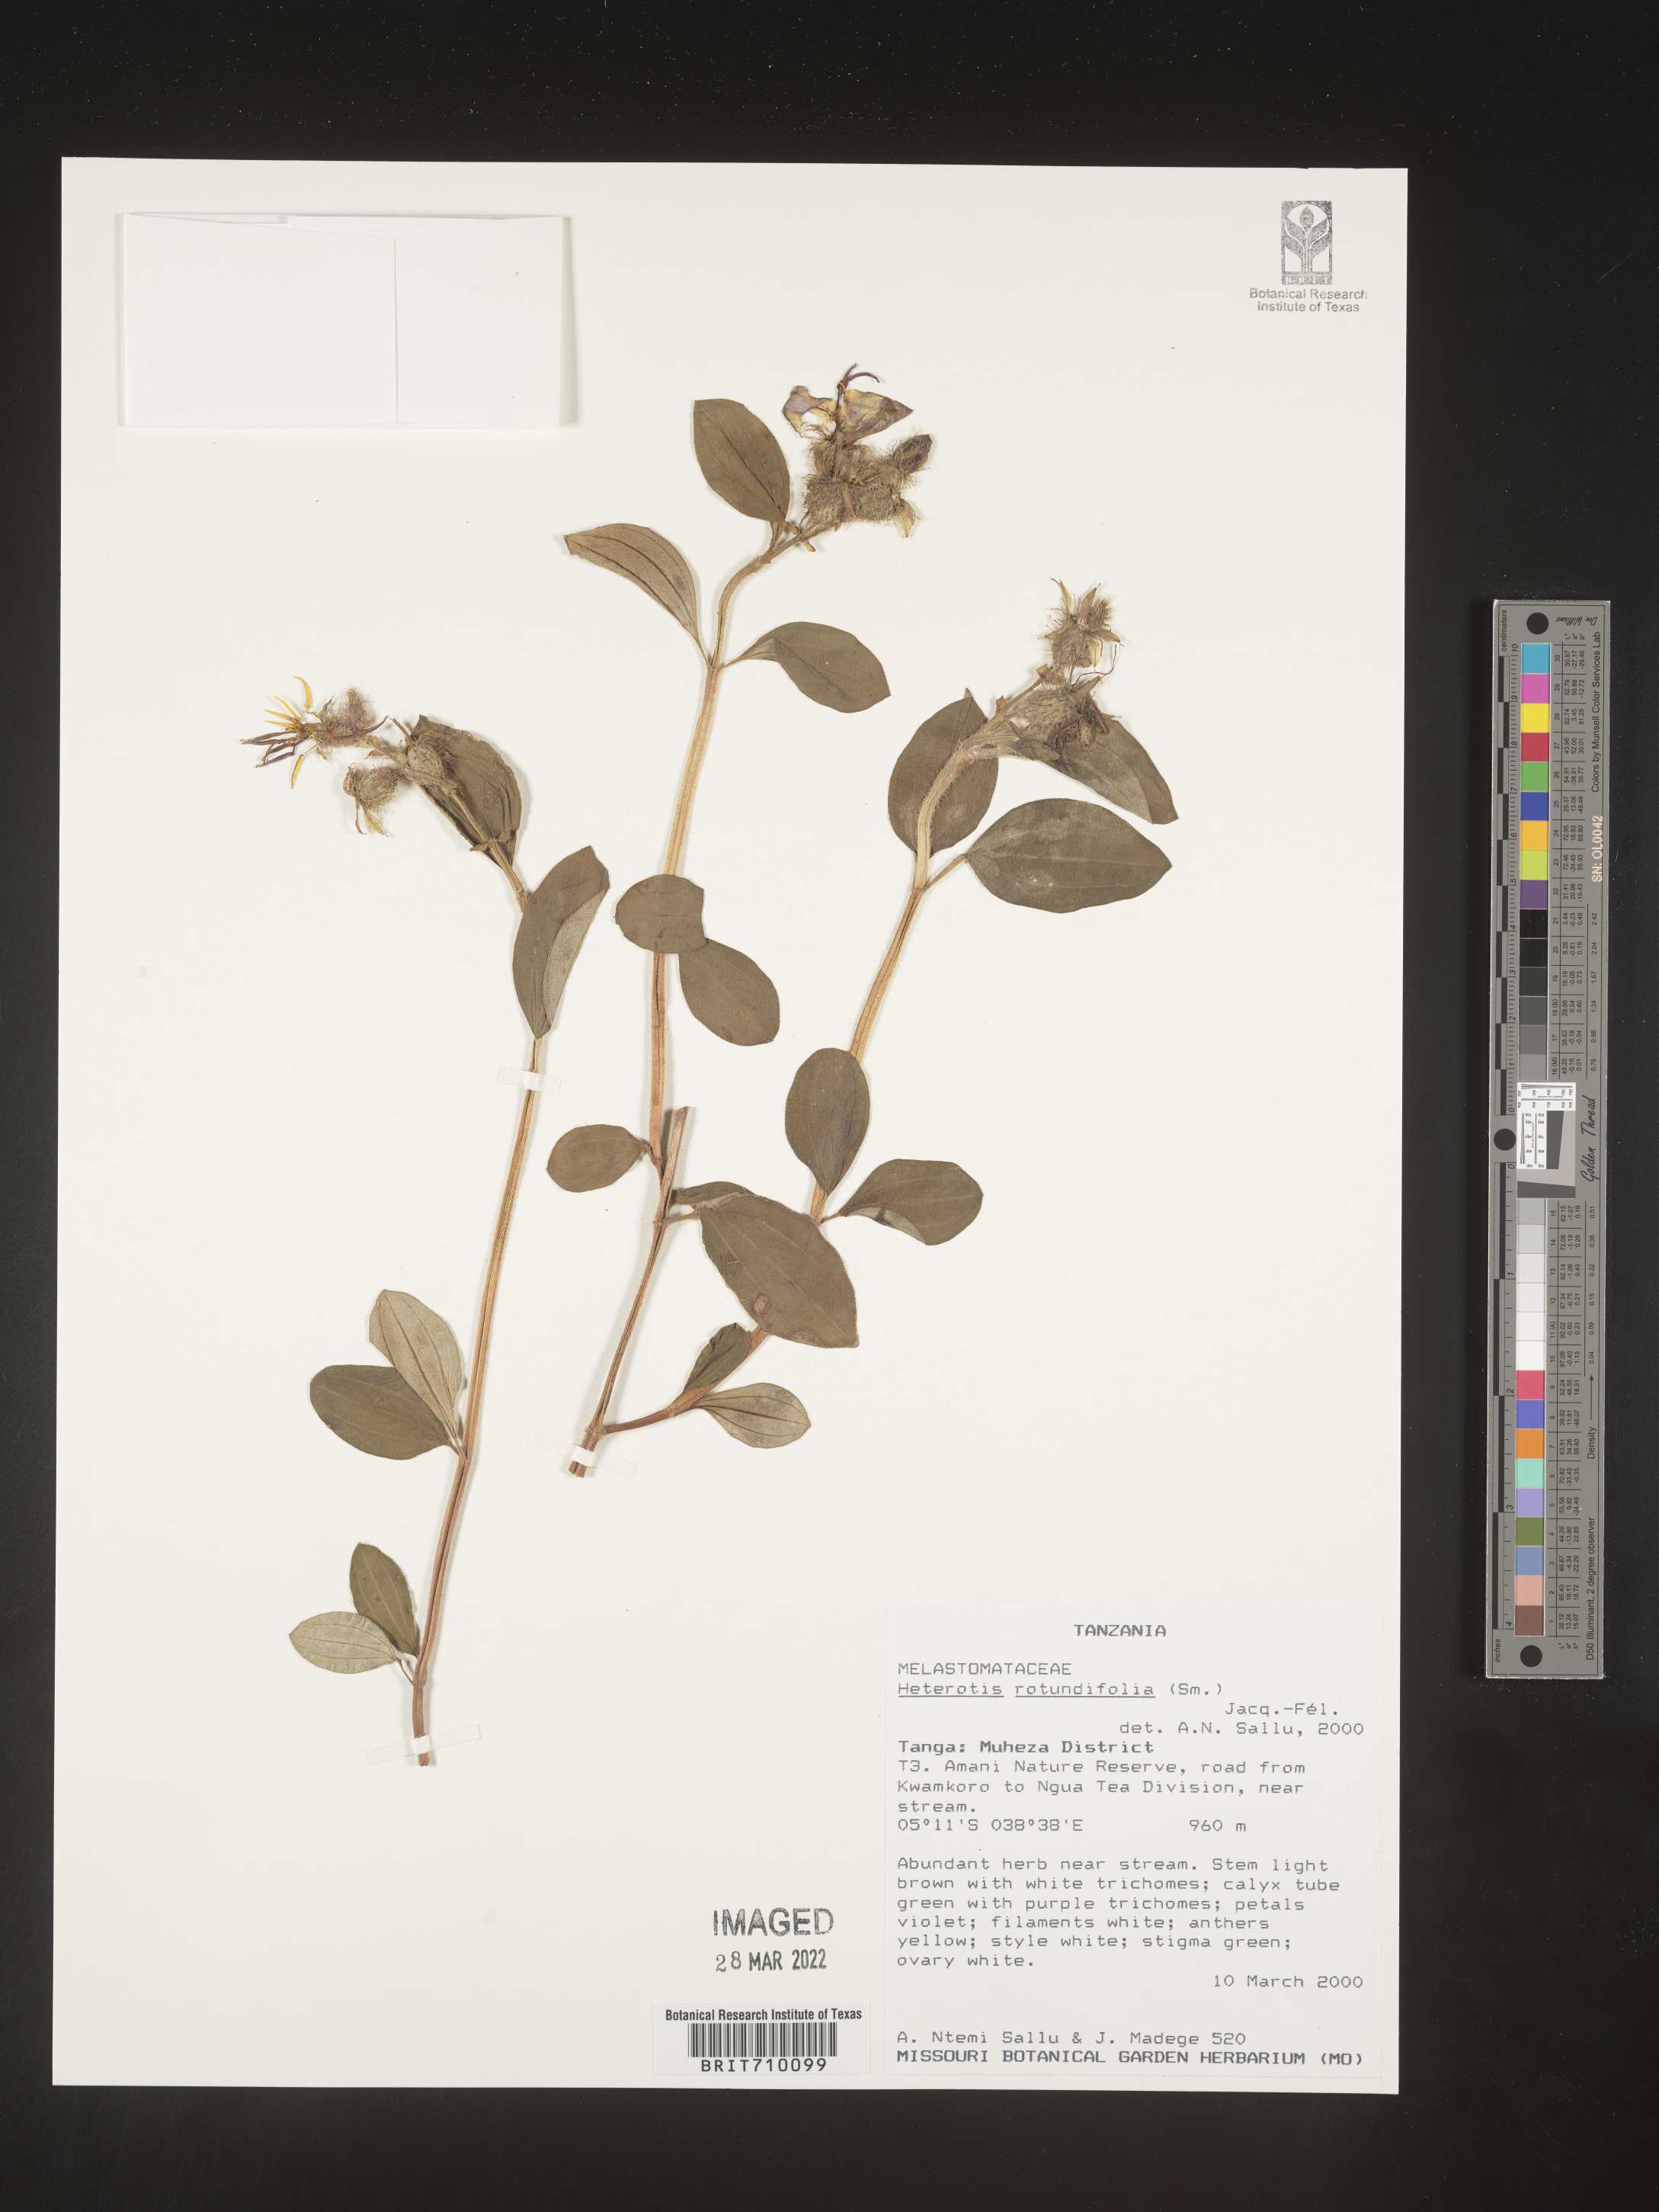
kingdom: Plantae
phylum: Tracheophyta
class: Magnoliopsida
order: Myrtales
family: Melastomataceae
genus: Heterotis
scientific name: Heterotis
